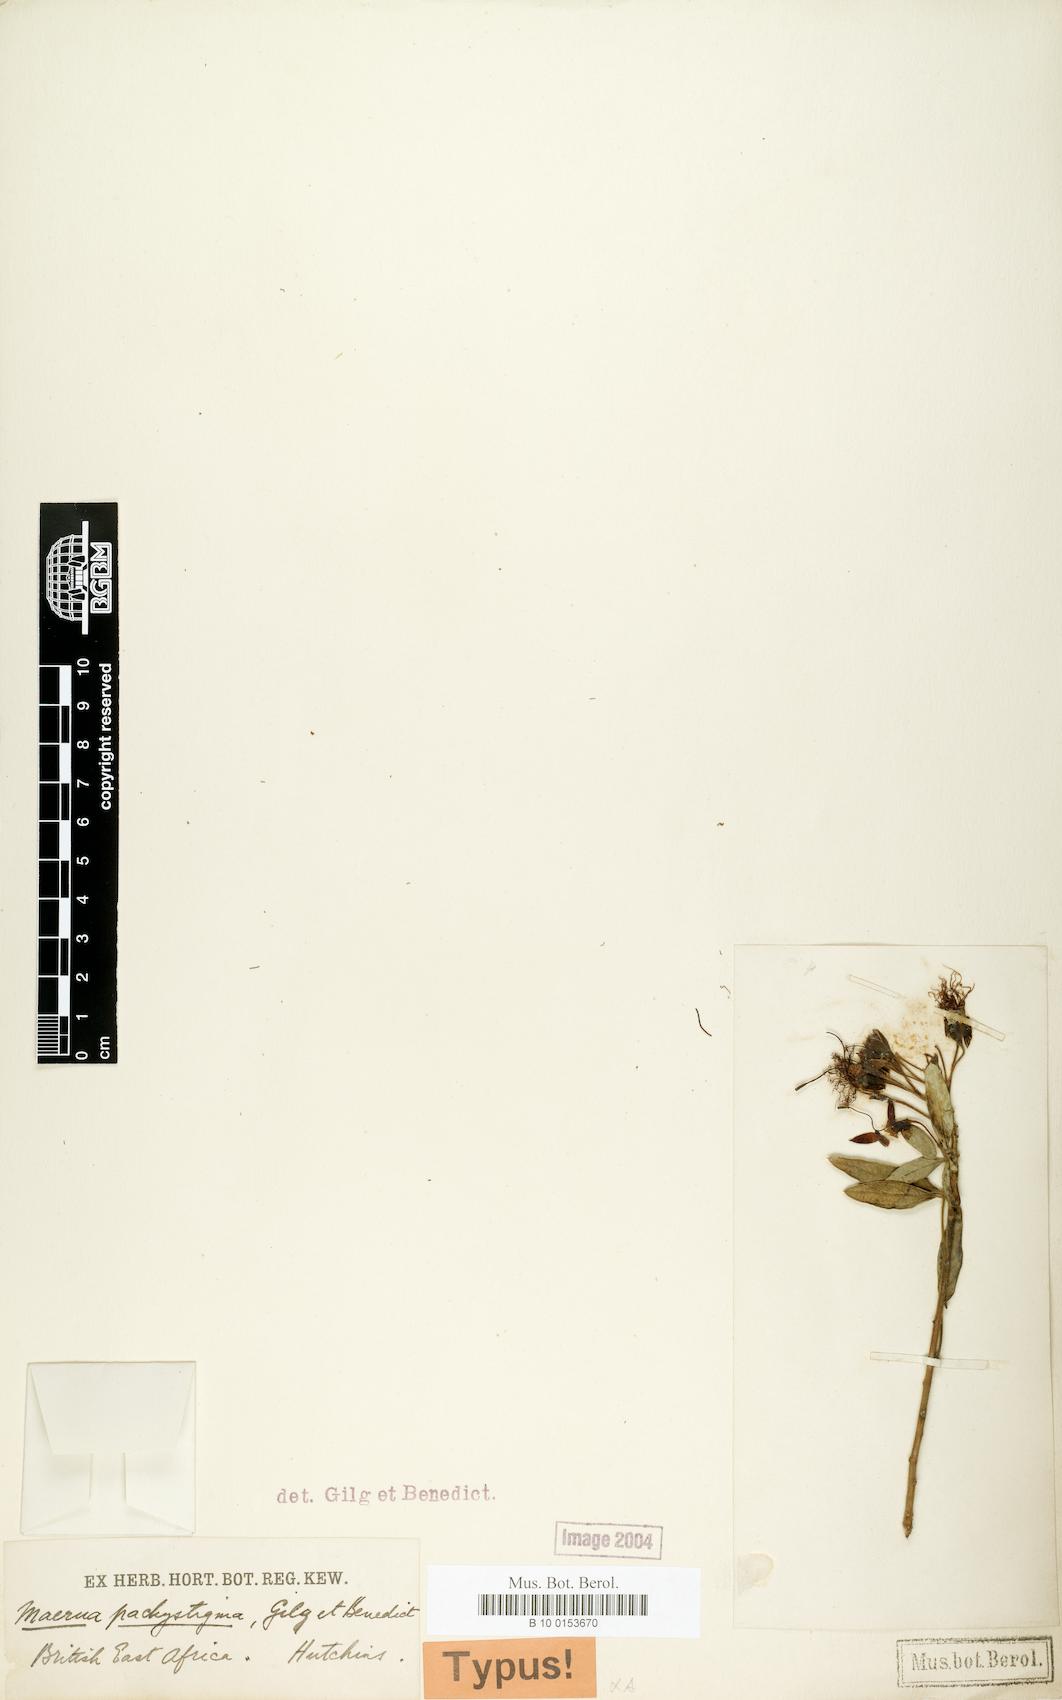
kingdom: Plantae
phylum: Tracheophyta
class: Magnoliopsida
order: Brassicales
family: Capparaceae
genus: Maerua
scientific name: Maerua triphylla
